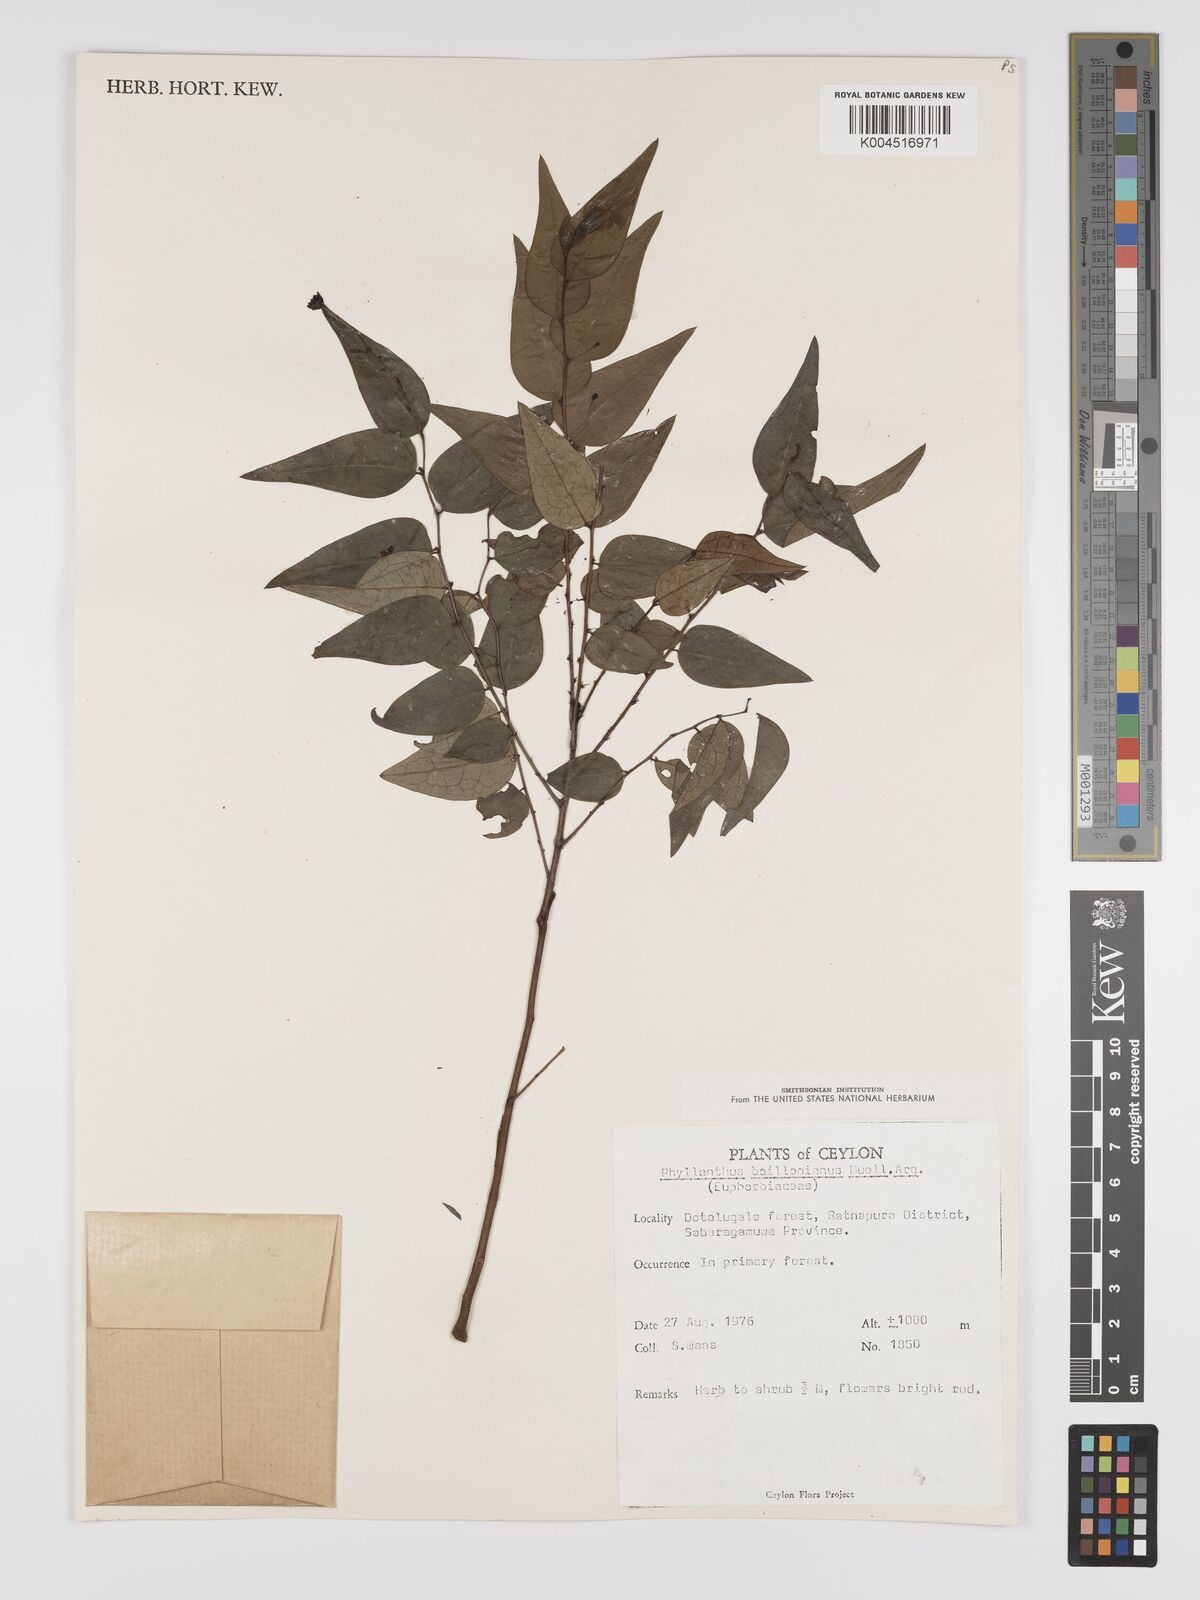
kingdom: Plantae
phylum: Tracheophyta
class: Magnoliopsida
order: Malpighiales
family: Phyllanthaceae
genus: Phyllanthus
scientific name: Phyllanthus baillonianus
